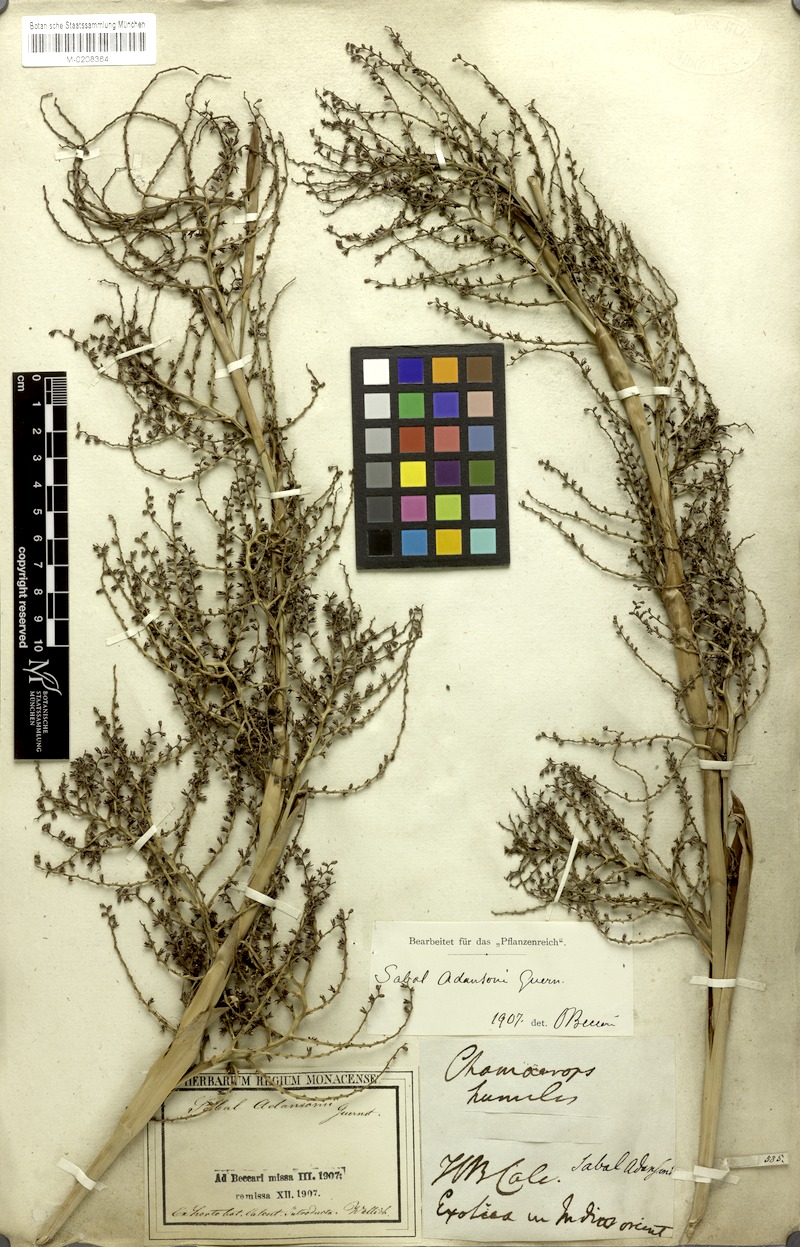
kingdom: Plantae
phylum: Tracheophyta
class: Liliopsida
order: Arecales
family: Arecaceae
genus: Sabal
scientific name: Sabal minor
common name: Dwarf palmetto
